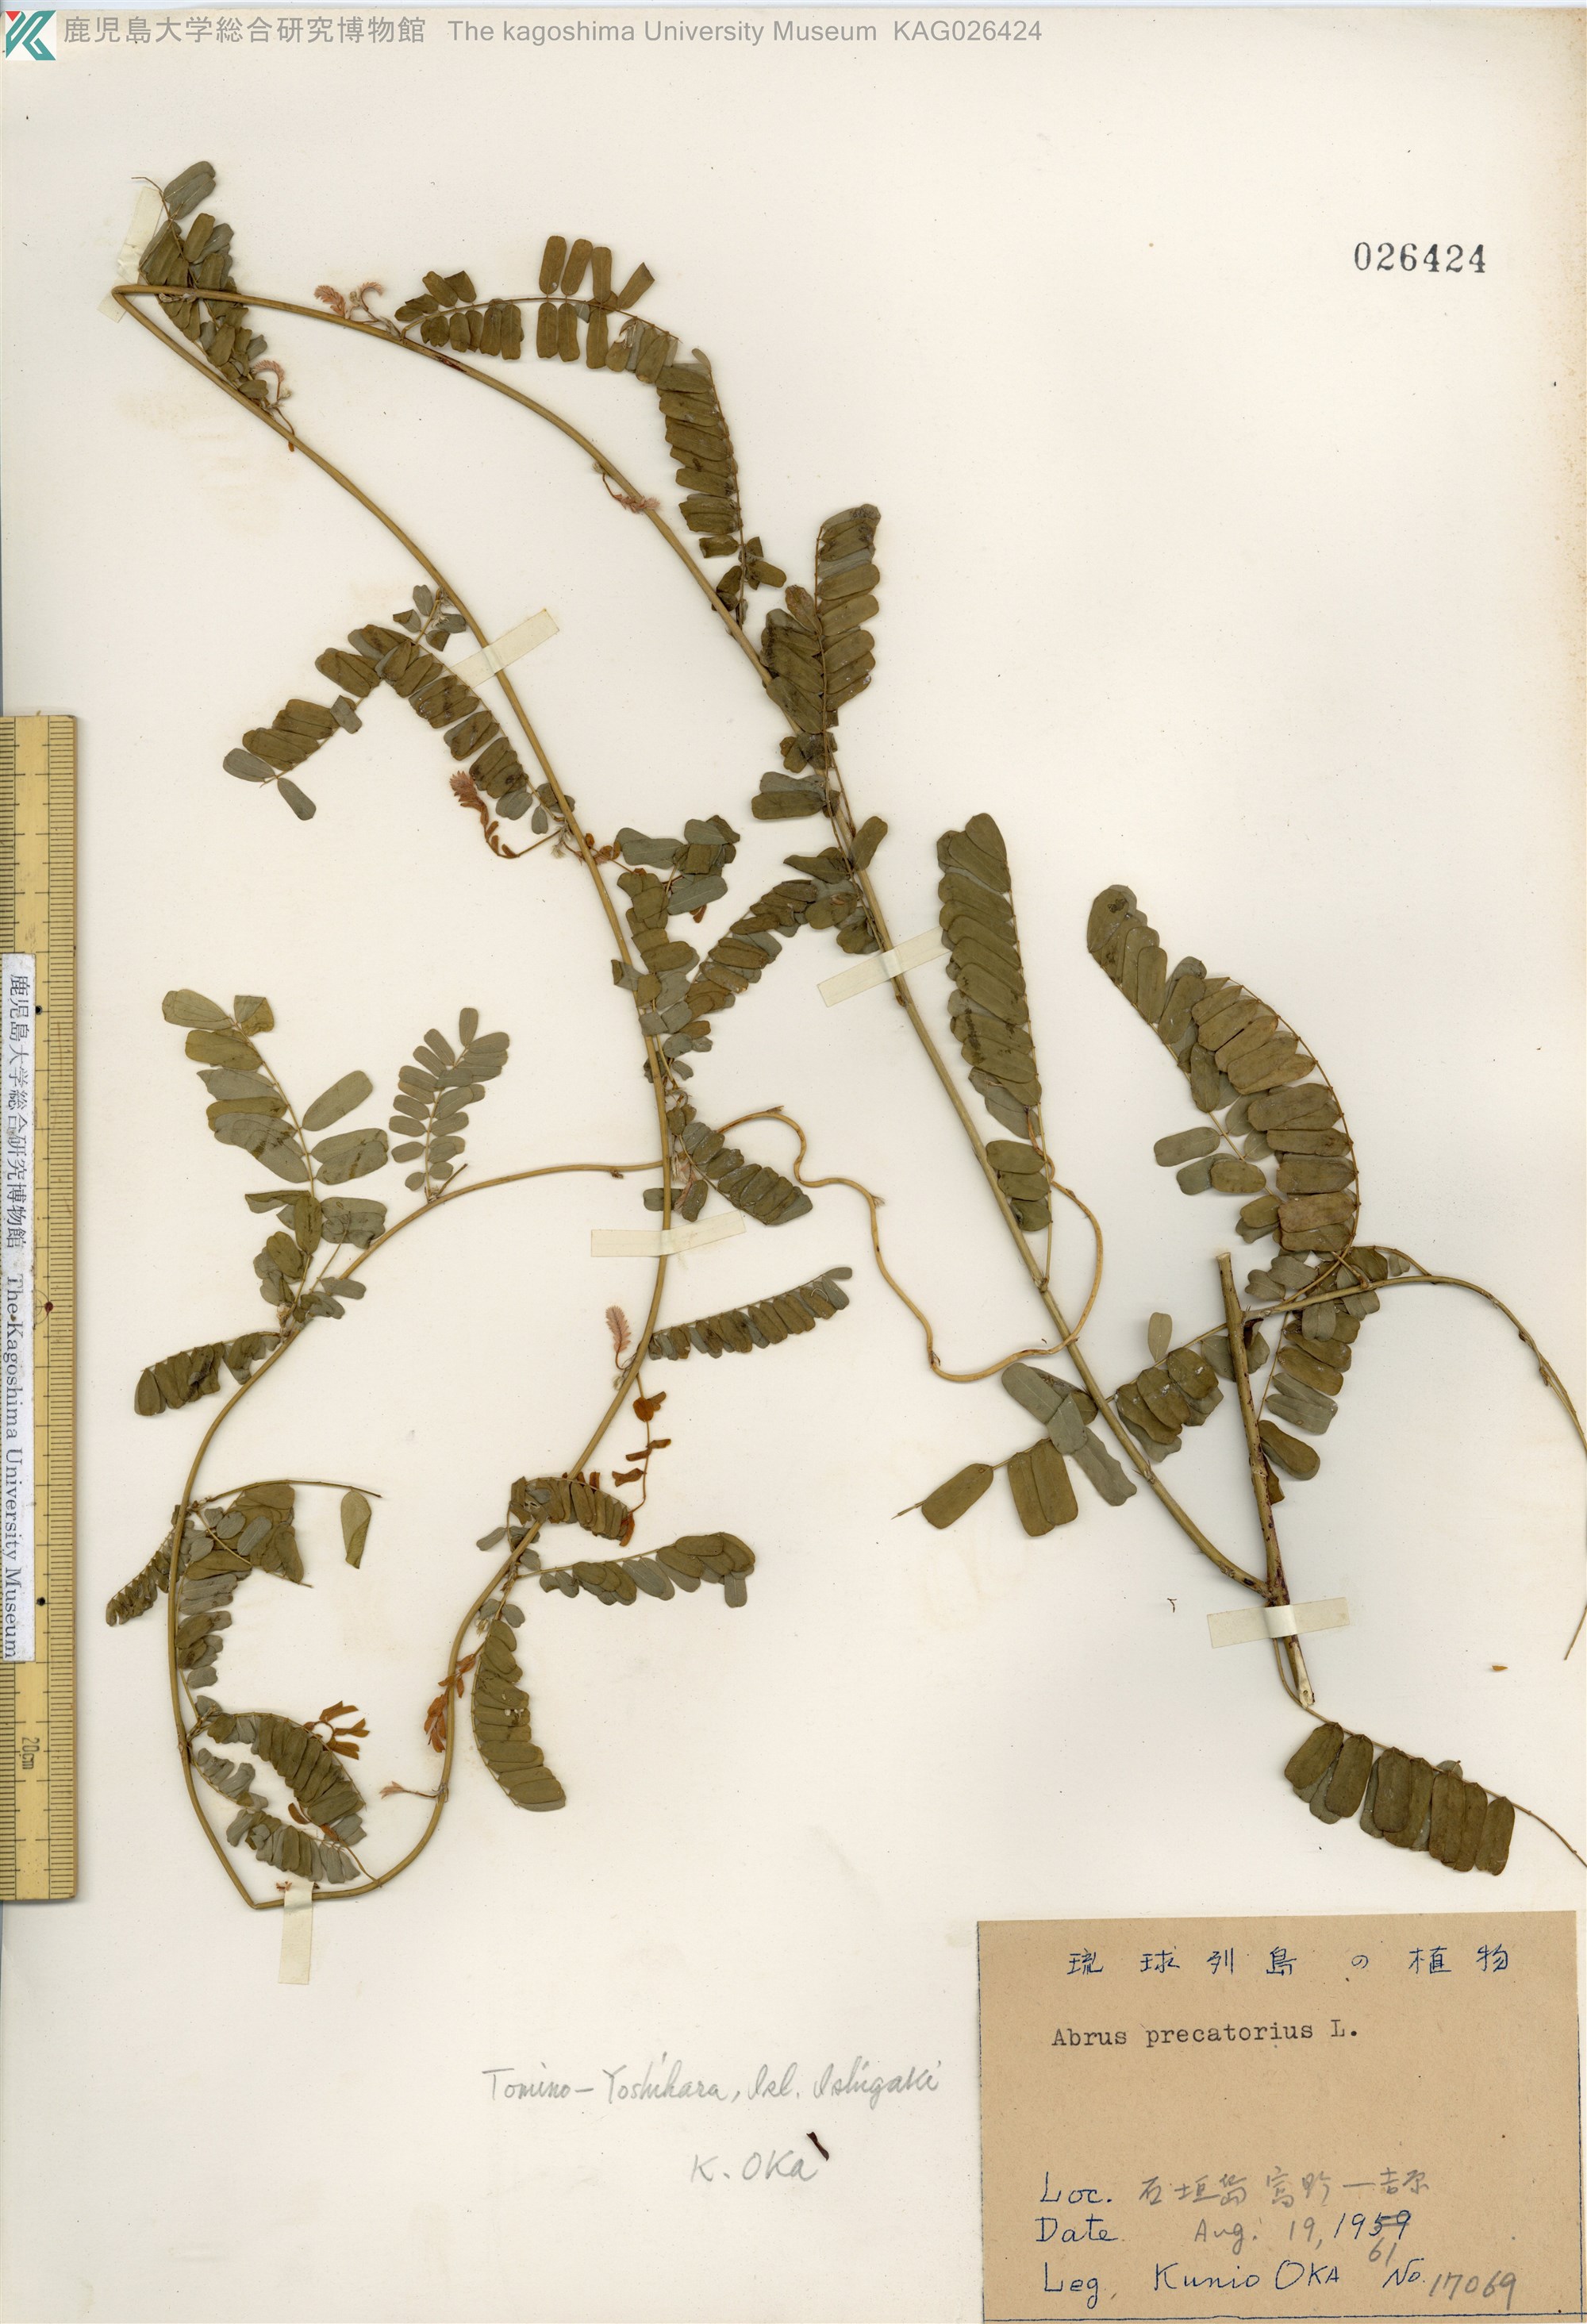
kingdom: Plantae
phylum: Tracheophyta
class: Magnoliopsida
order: Fabales
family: Fabaceae
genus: Abrus
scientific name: Abrus precatorius
